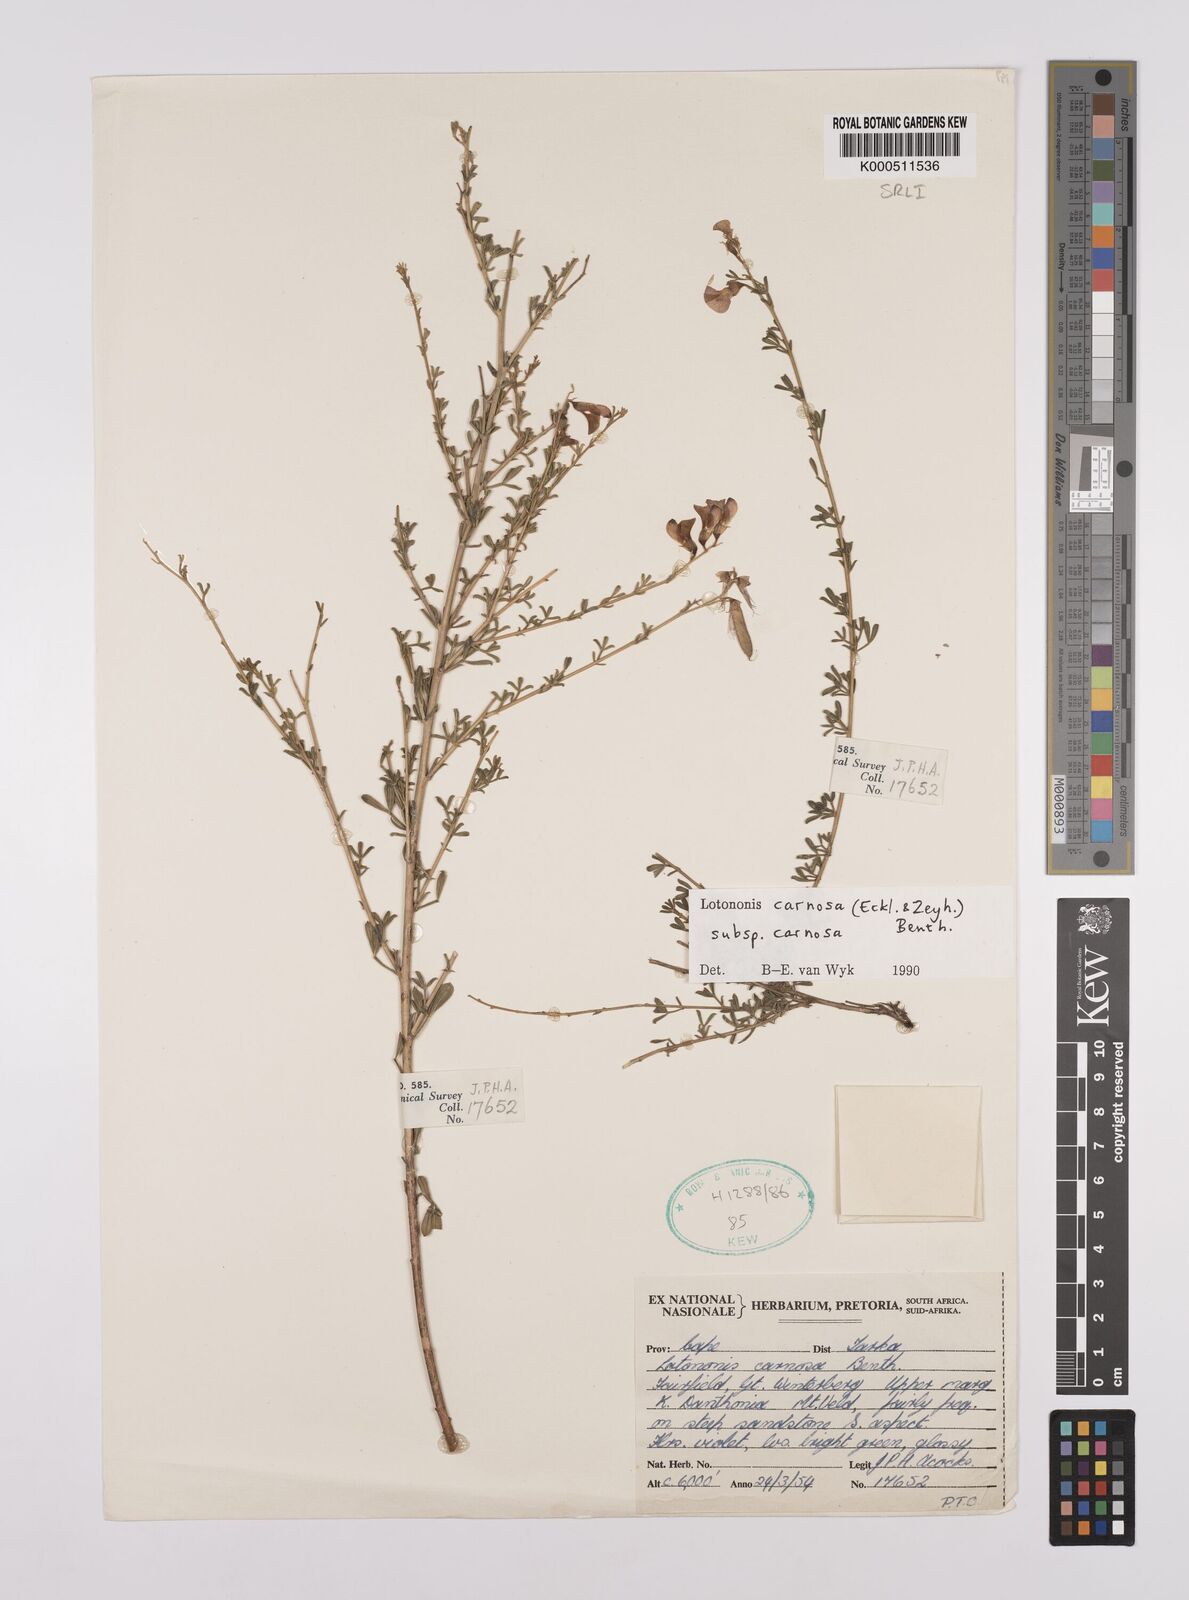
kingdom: Plantae
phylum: Tracheophyta
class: Magnoliopsida
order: Fabales
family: Fabaceae
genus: Lotononis
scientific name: Lotononis carnosa
